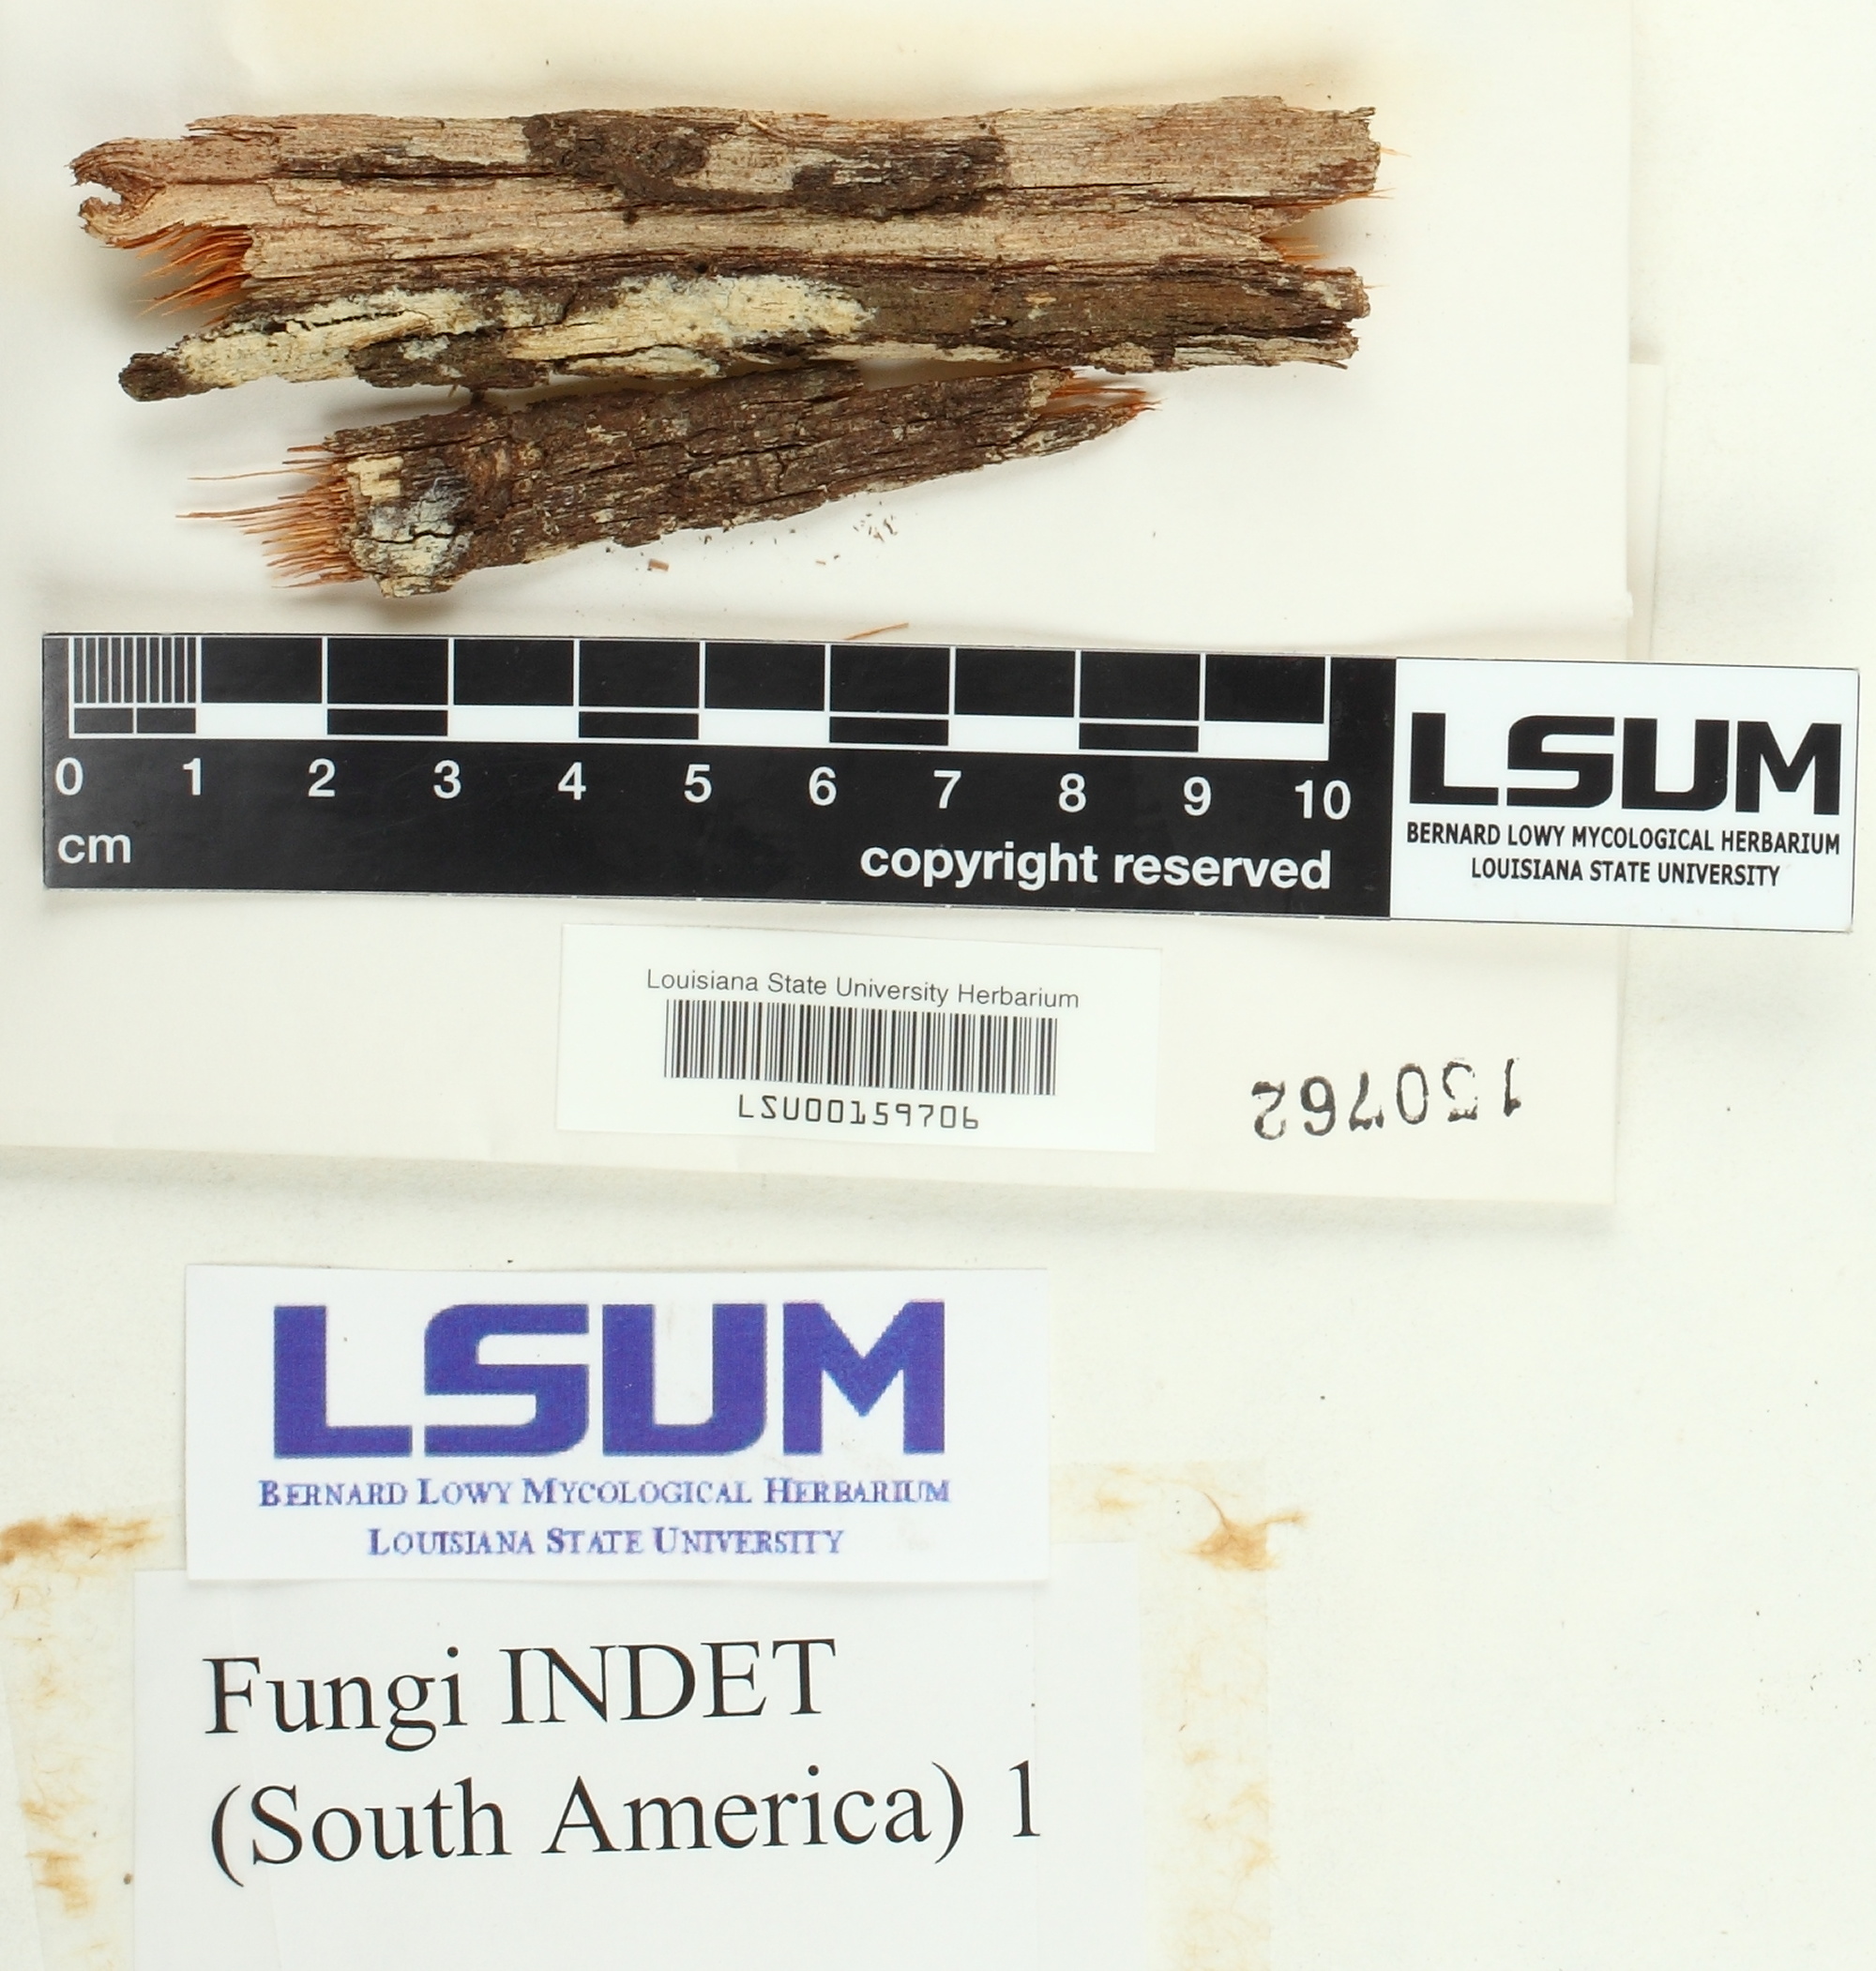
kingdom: Fungi
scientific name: Fungi
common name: Fungi
